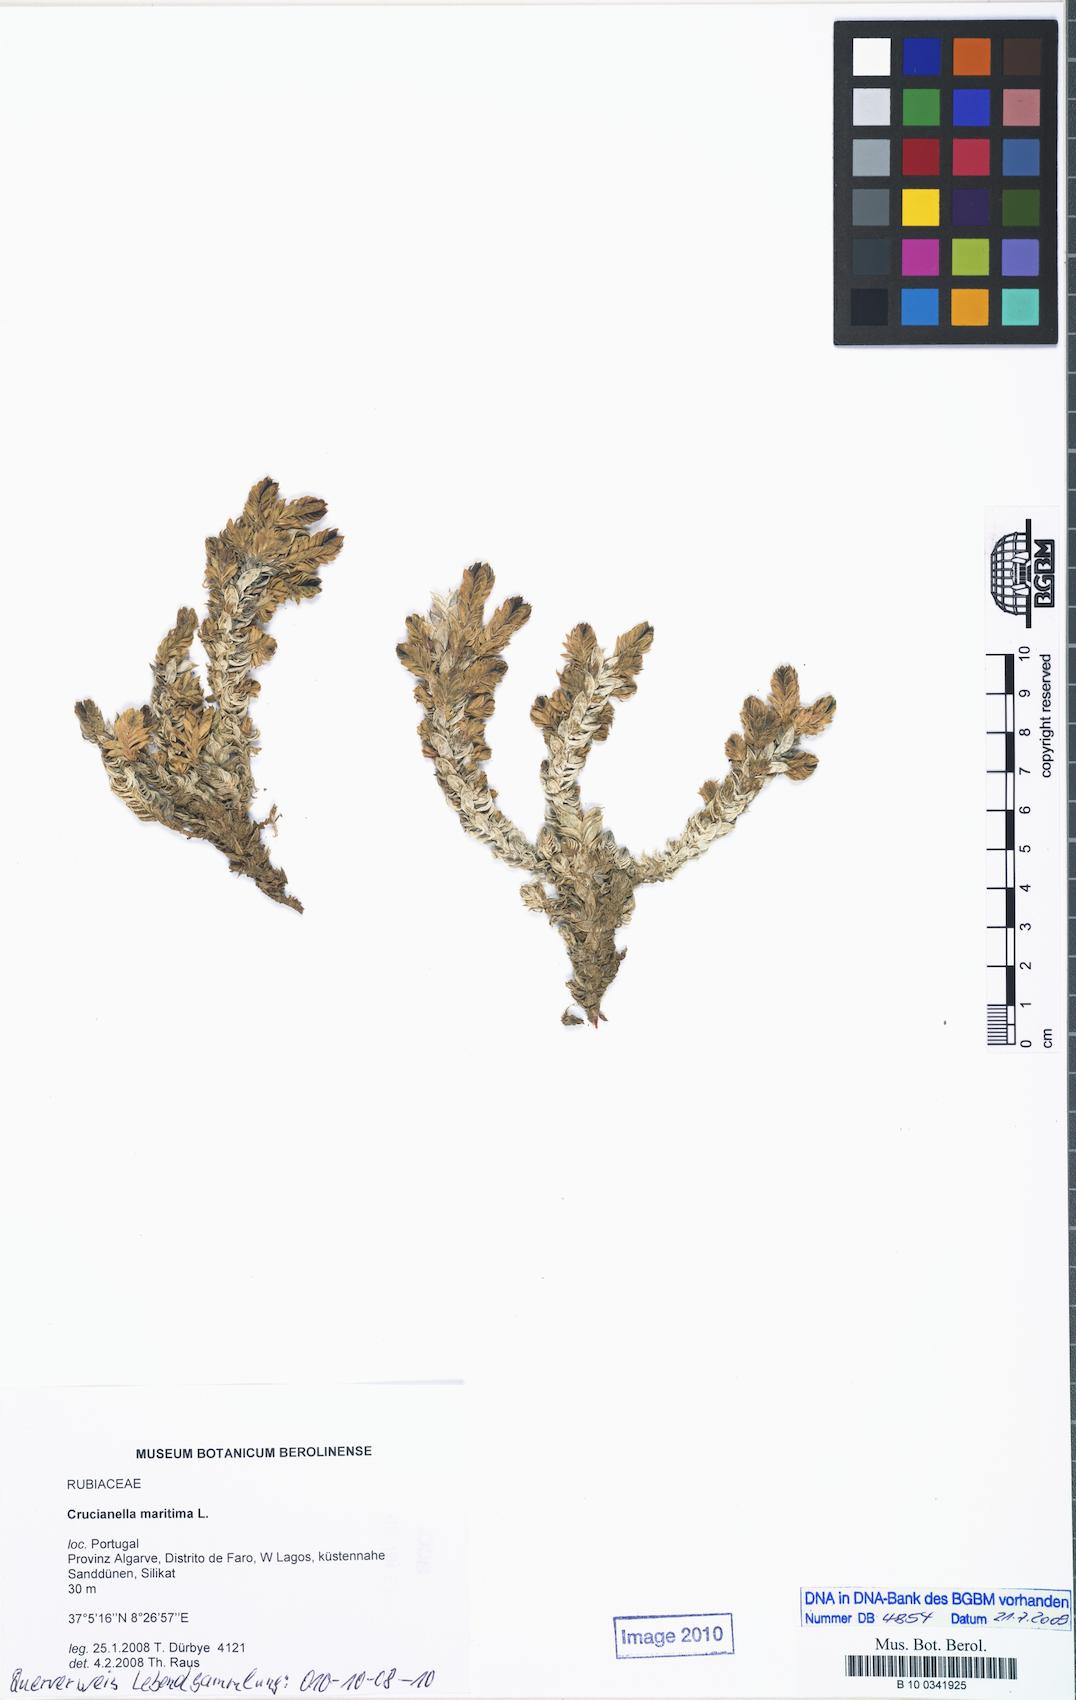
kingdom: Plantae
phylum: Tracheophyta
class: Magnoliopsida
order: Gentianales
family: Rubiaceae
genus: Crucianella
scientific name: Crucianella maritima
